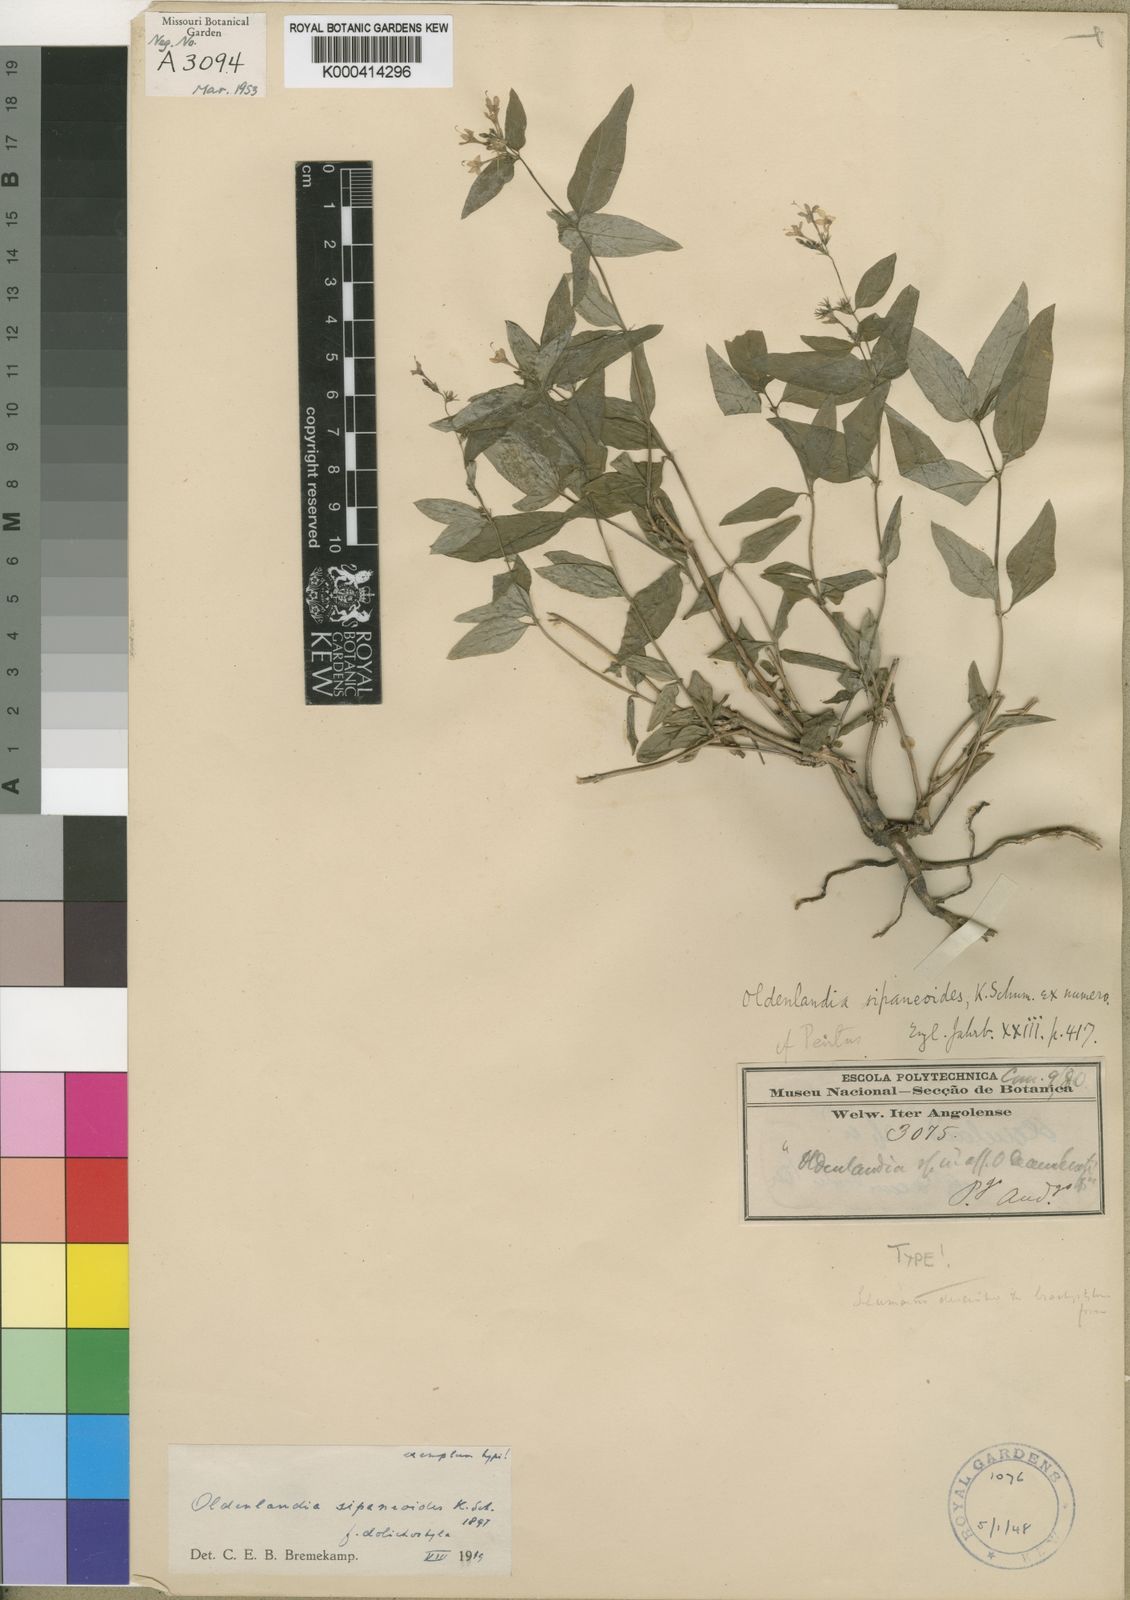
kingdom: Plantae
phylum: Tracheophyta
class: Magnoliopsida
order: Gentianales
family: Rubiaceae
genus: Oldenlandia
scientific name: Oldenlandia sipaneoides
